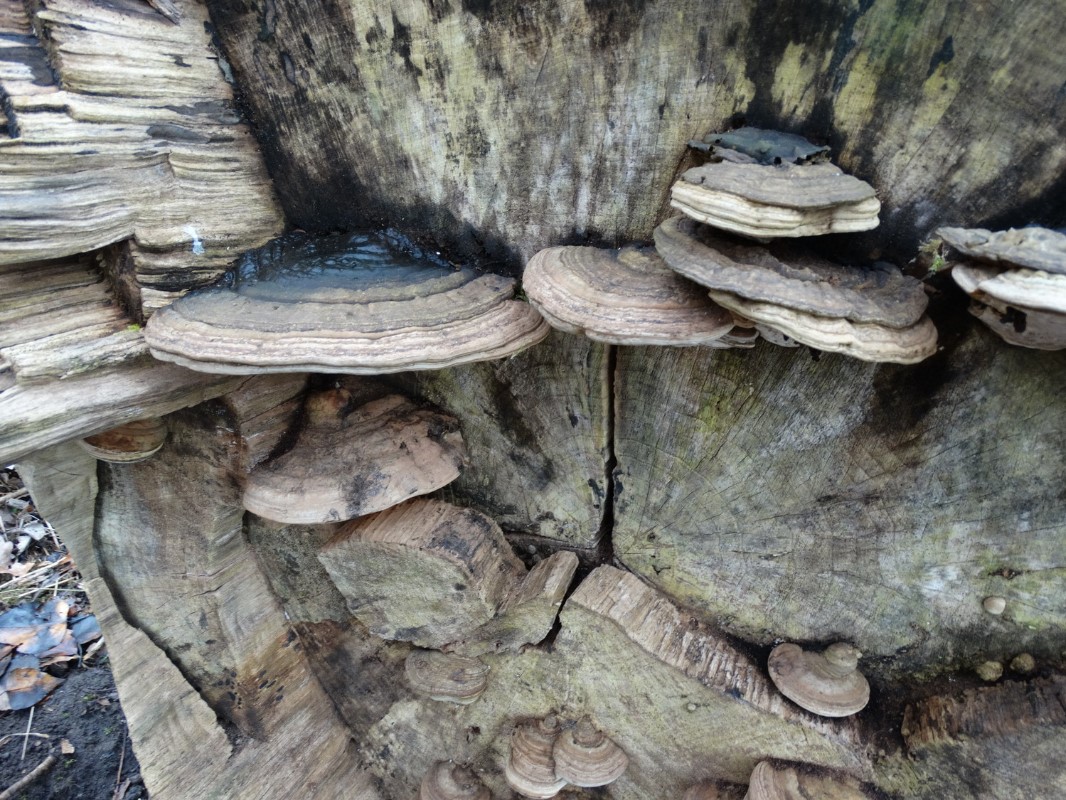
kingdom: Fungi
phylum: Basidiomycota
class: Agaricomycetes
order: Polyporales
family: Polyporaceae
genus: Ganoderma
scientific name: Ganoderma applanatum
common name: flad lakporesvamp
